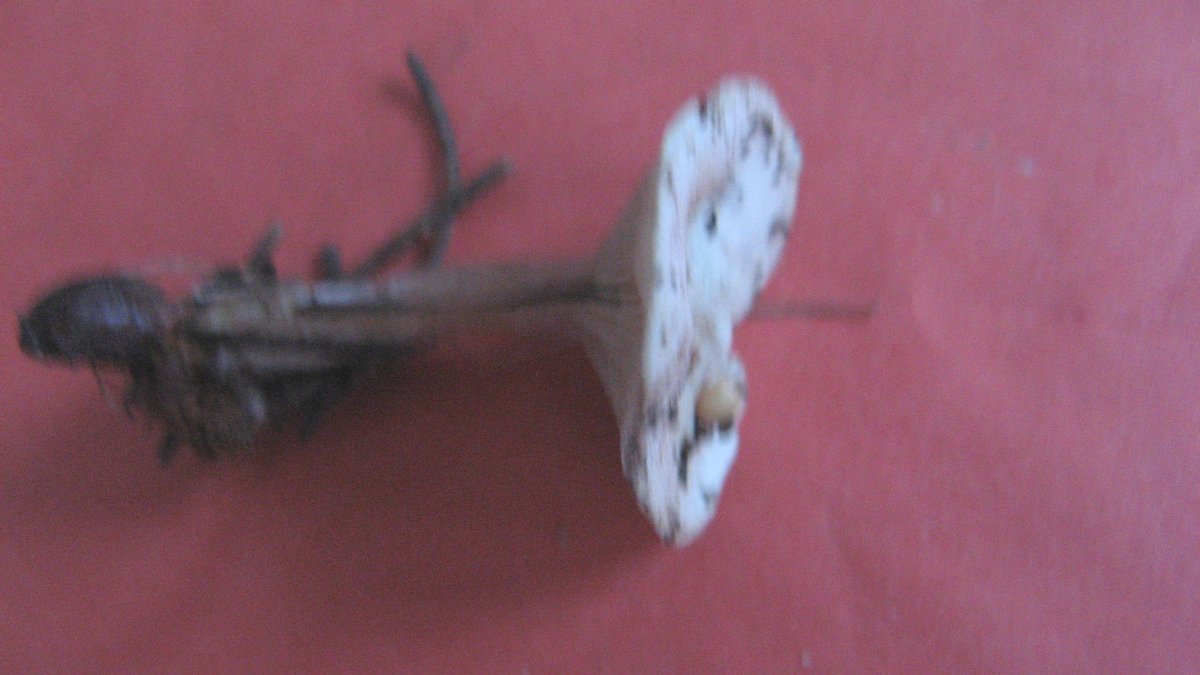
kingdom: Fungi
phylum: Basidiomycota
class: Agaricomycetes
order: Agaricales
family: Tricholomataceae
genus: Ripartites
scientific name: Ripartites tricholoma
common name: almindelig skæghat
